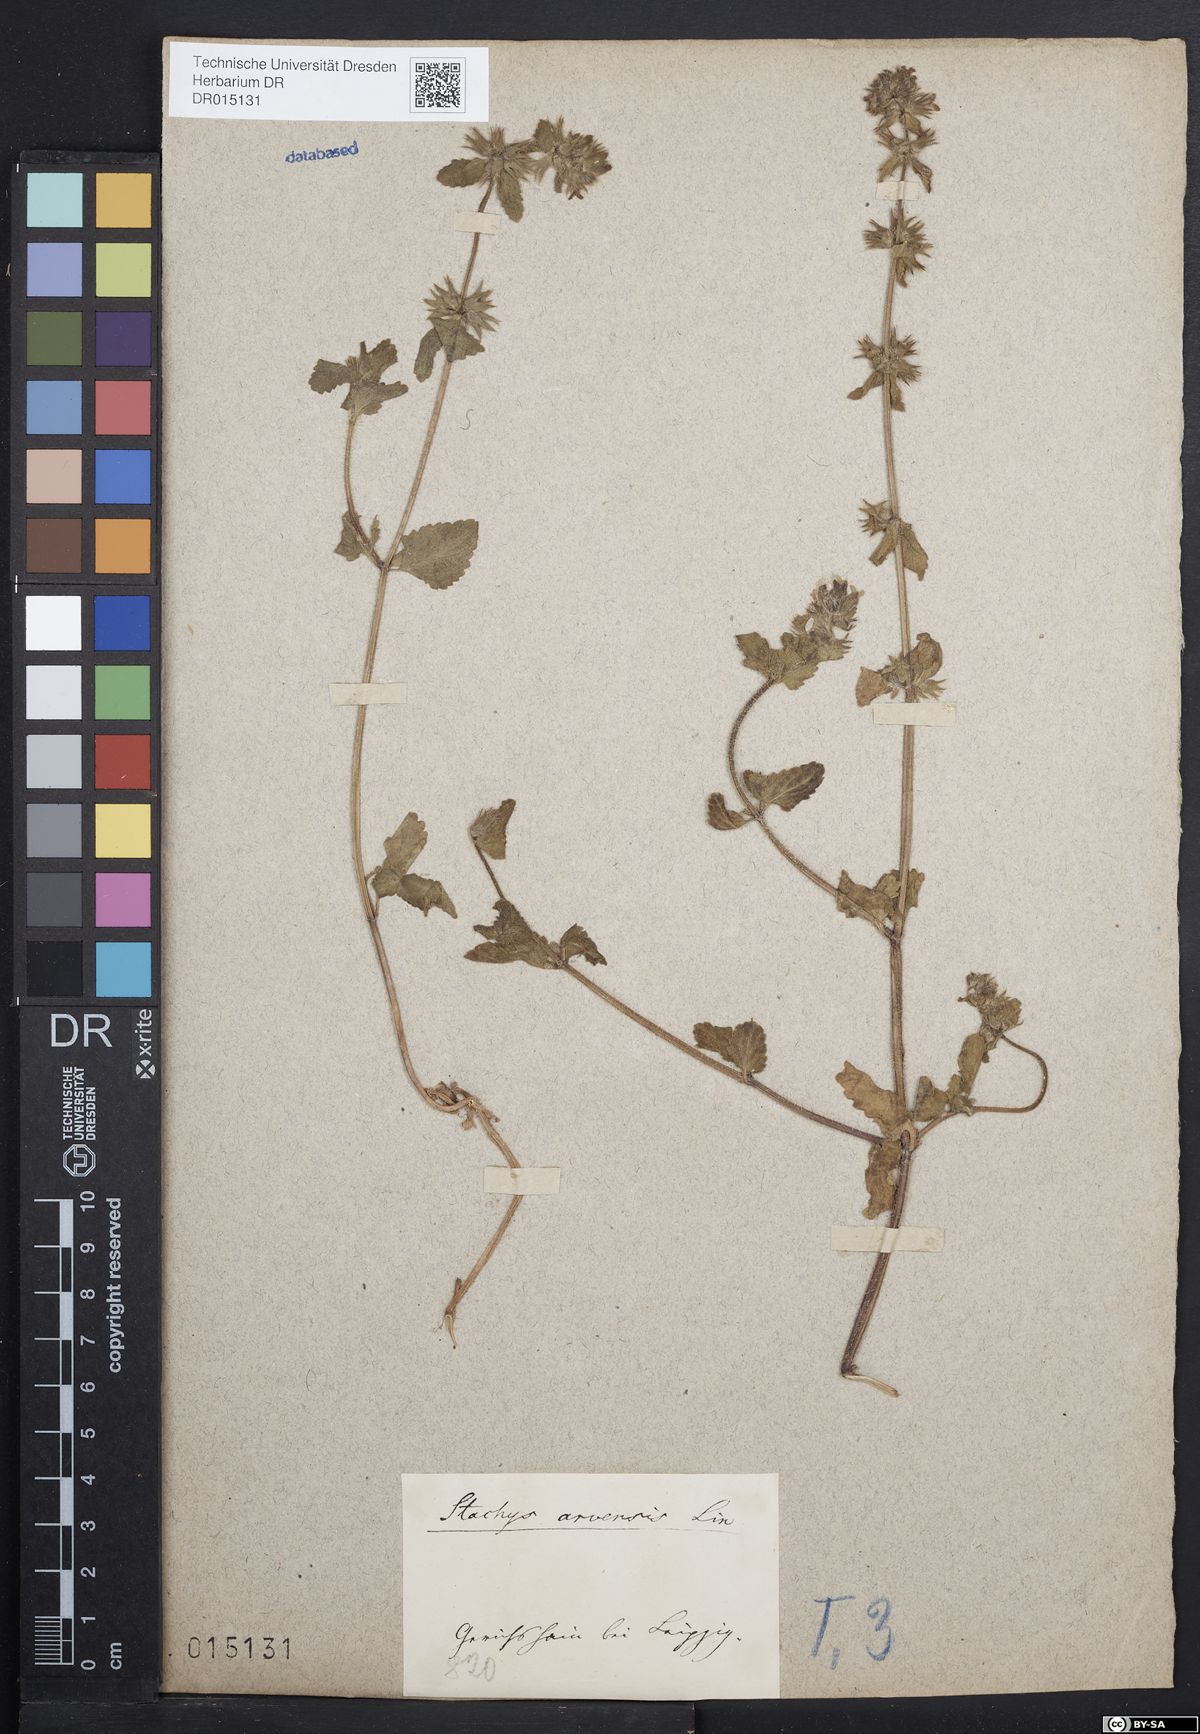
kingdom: Plantae
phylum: Tracheophyta
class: Magnoliopsida
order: Lamiales
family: Lamiaceae
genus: Stachys
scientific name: Stachys arvensis
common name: Field woundwort
